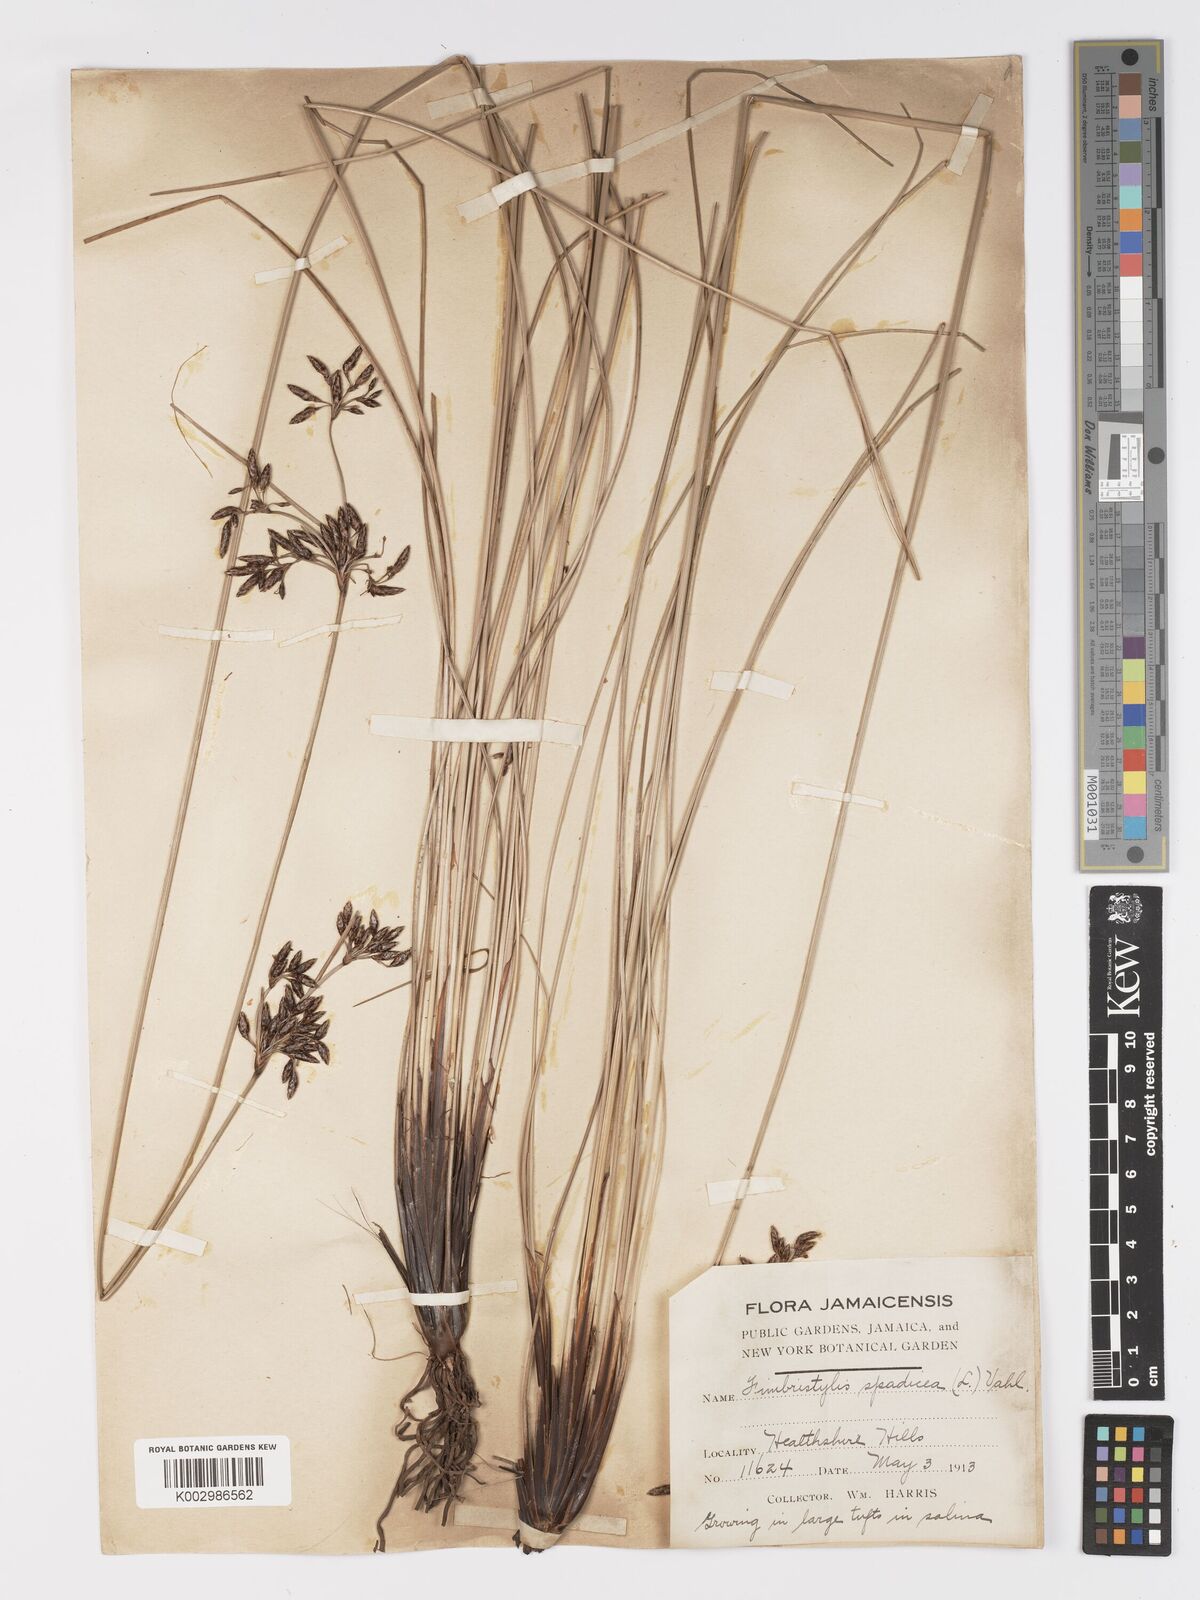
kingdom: Plantae
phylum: Tracheophyta
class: Liliopsida
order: Poales
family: Cyperaceae
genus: Fimbristylis
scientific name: Fimbristylis spadicea
